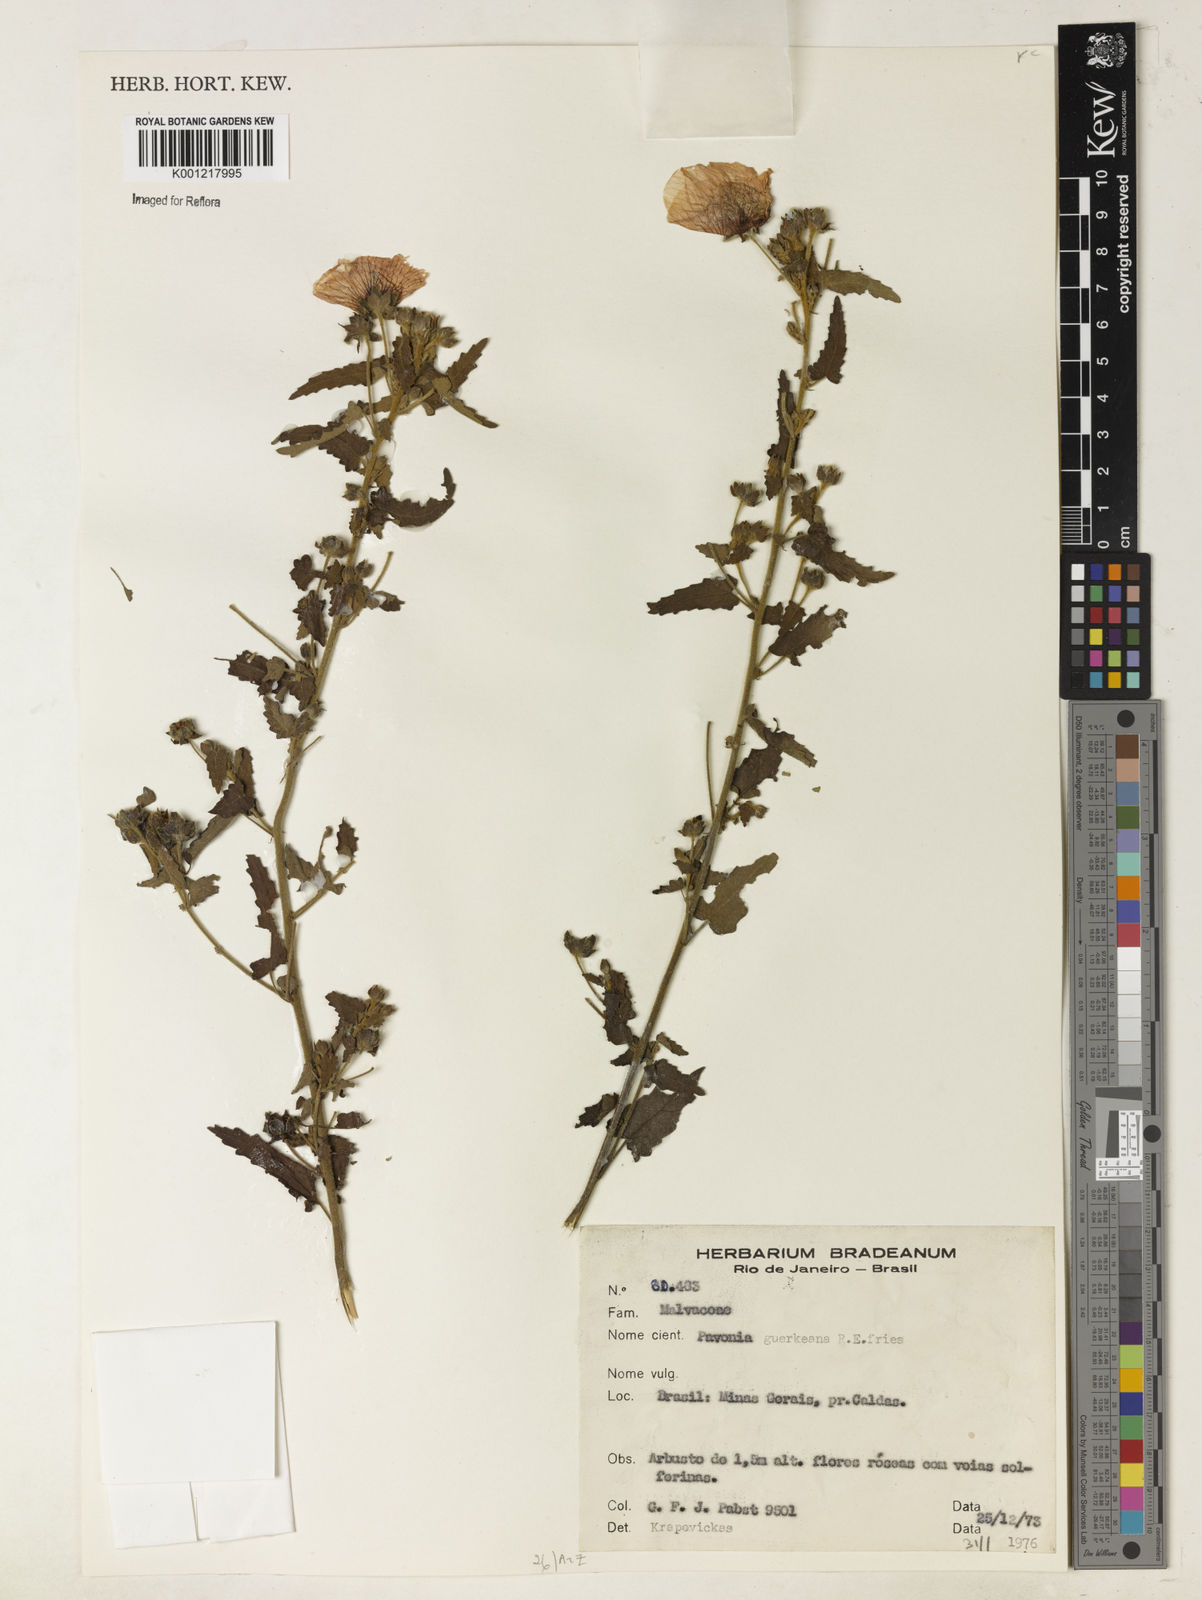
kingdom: Plantae
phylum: Tracheophyta
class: Magnoliopsida
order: Malvales
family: Malvaceae
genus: Pavonia
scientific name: Pavonia guerkeana
